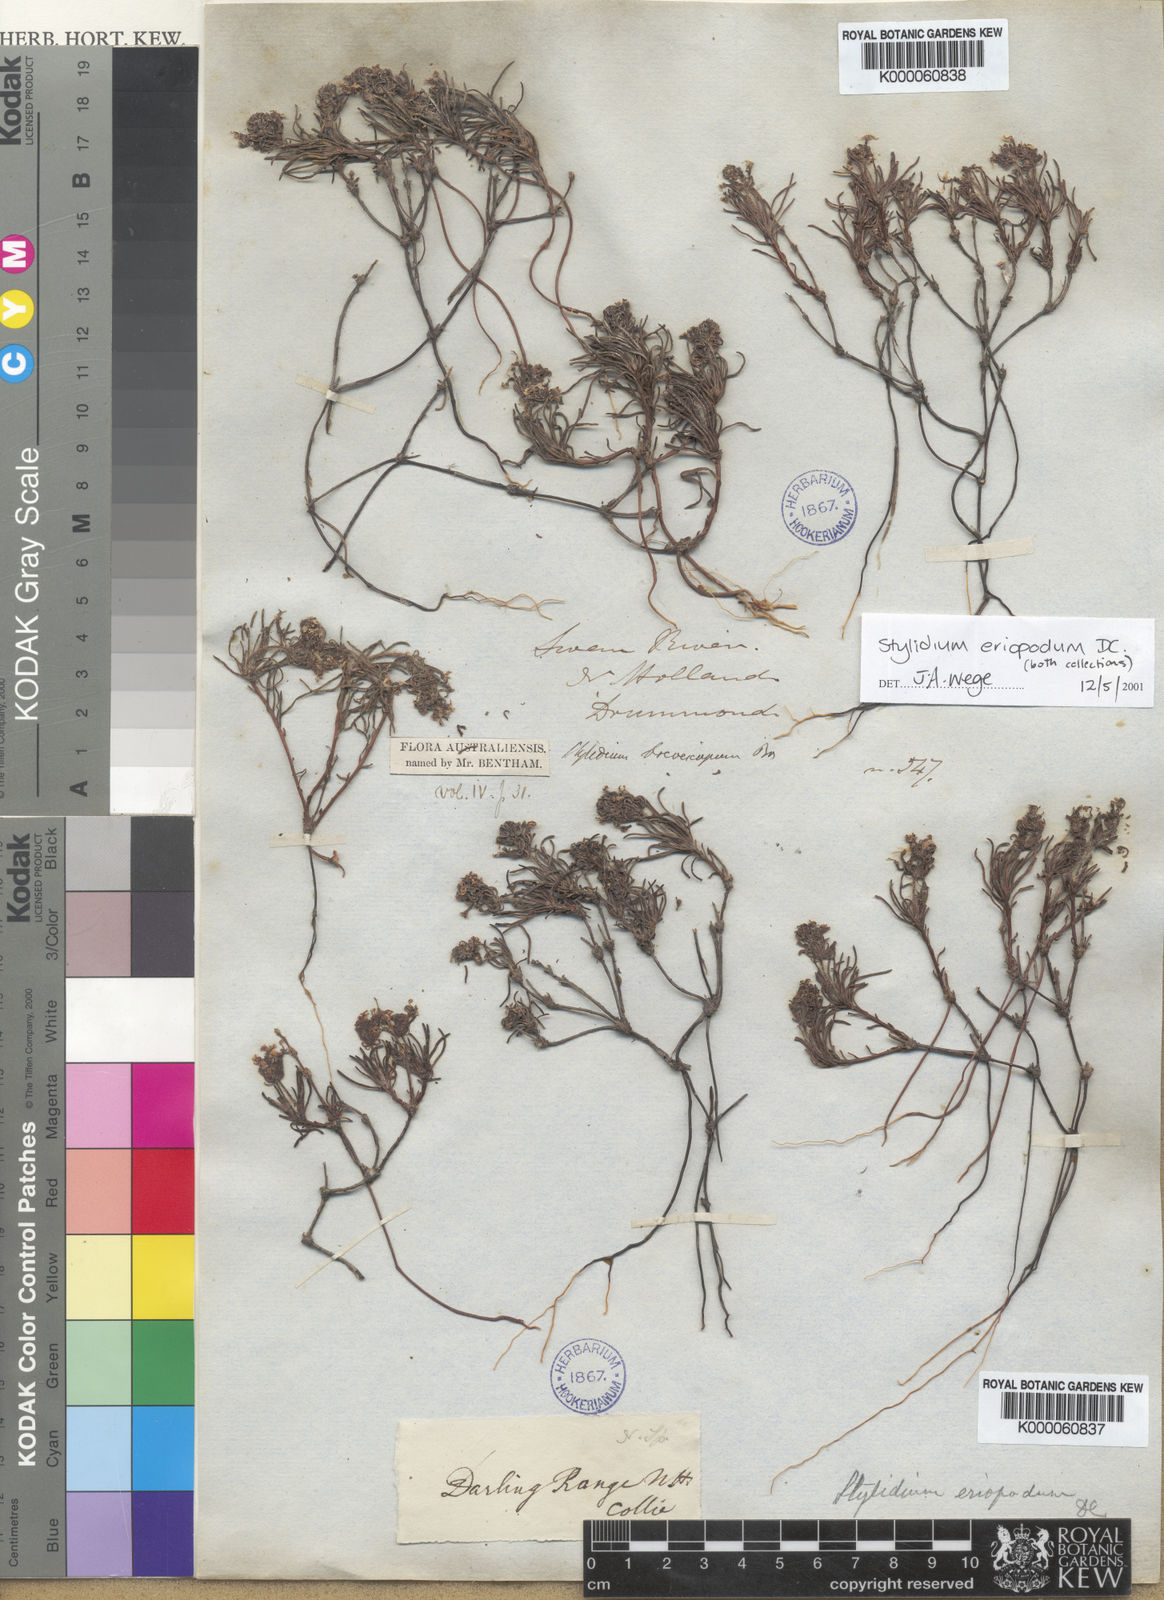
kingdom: Plantae
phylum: Tracheophyta
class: Magnoliopsida
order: Asterales
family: Stylidiaceae
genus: Stylidium
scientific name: Stylidium breviscapum
